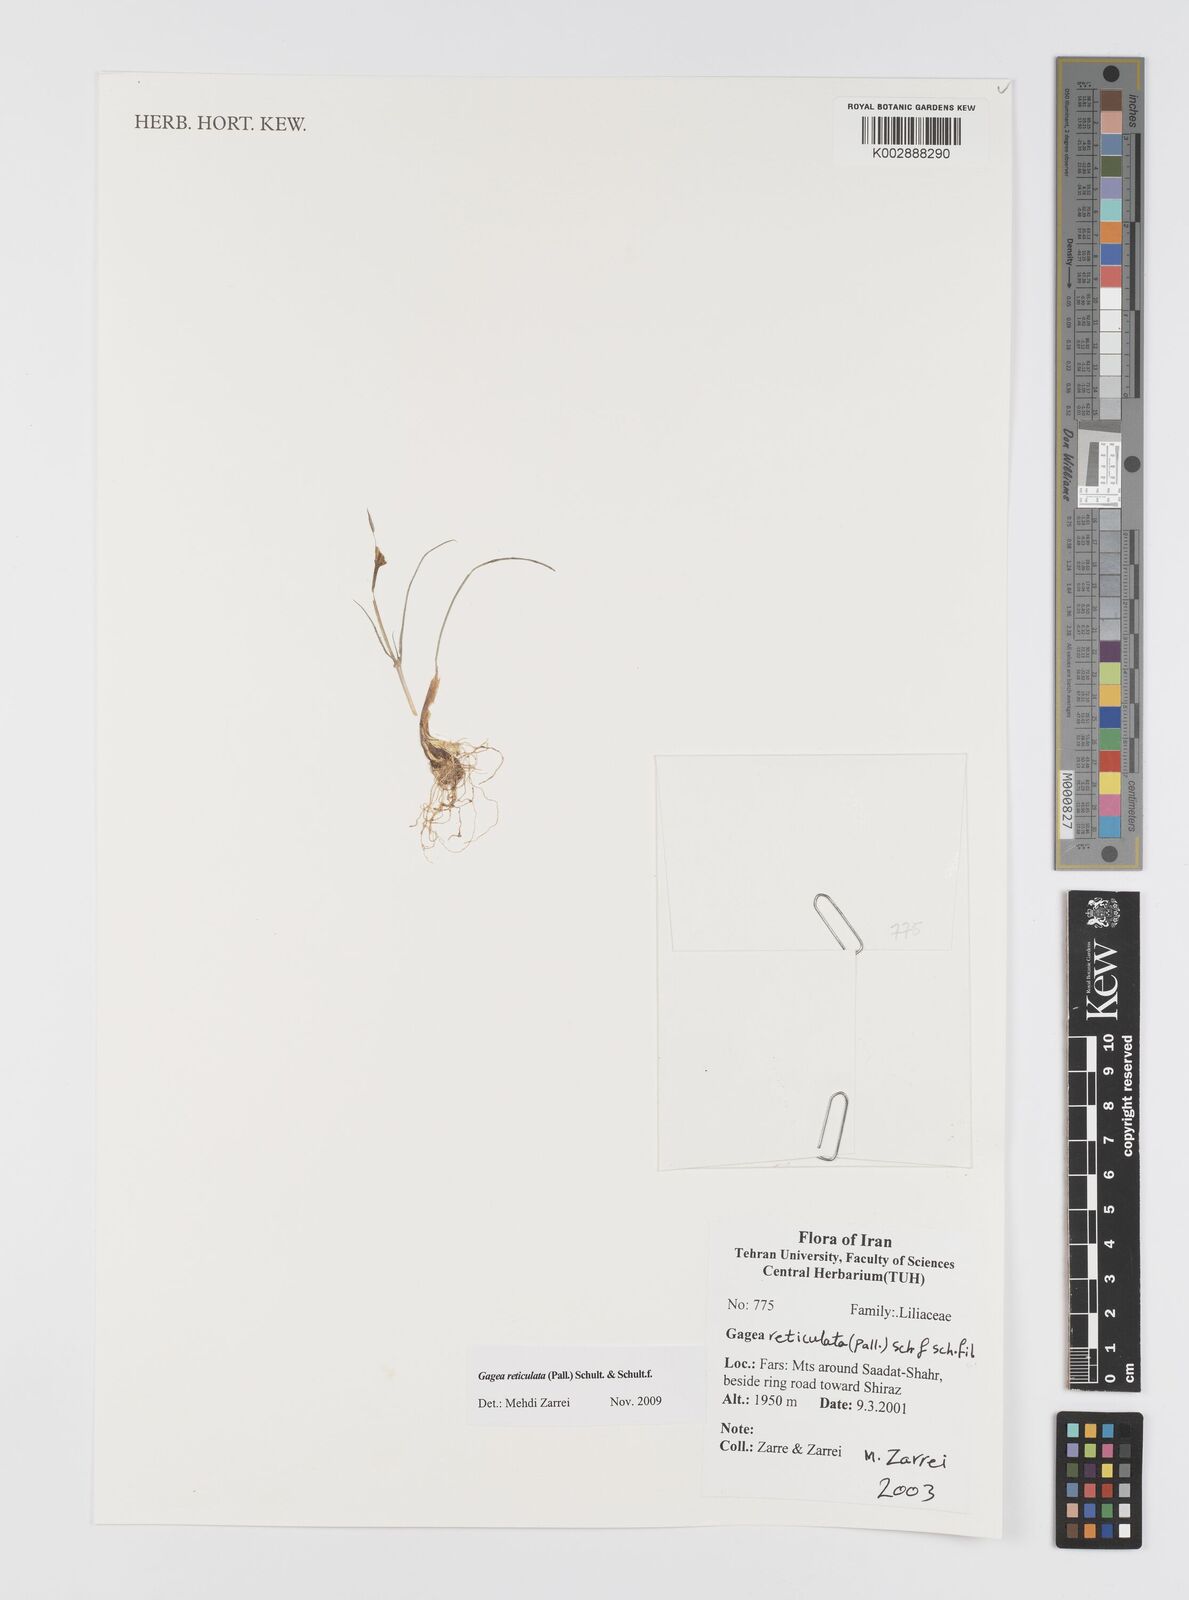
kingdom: Plantae
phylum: Tracheophyta
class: Liliopsida
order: Liliales
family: Liliaceae
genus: Gagea
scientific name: Gagea reticulata
